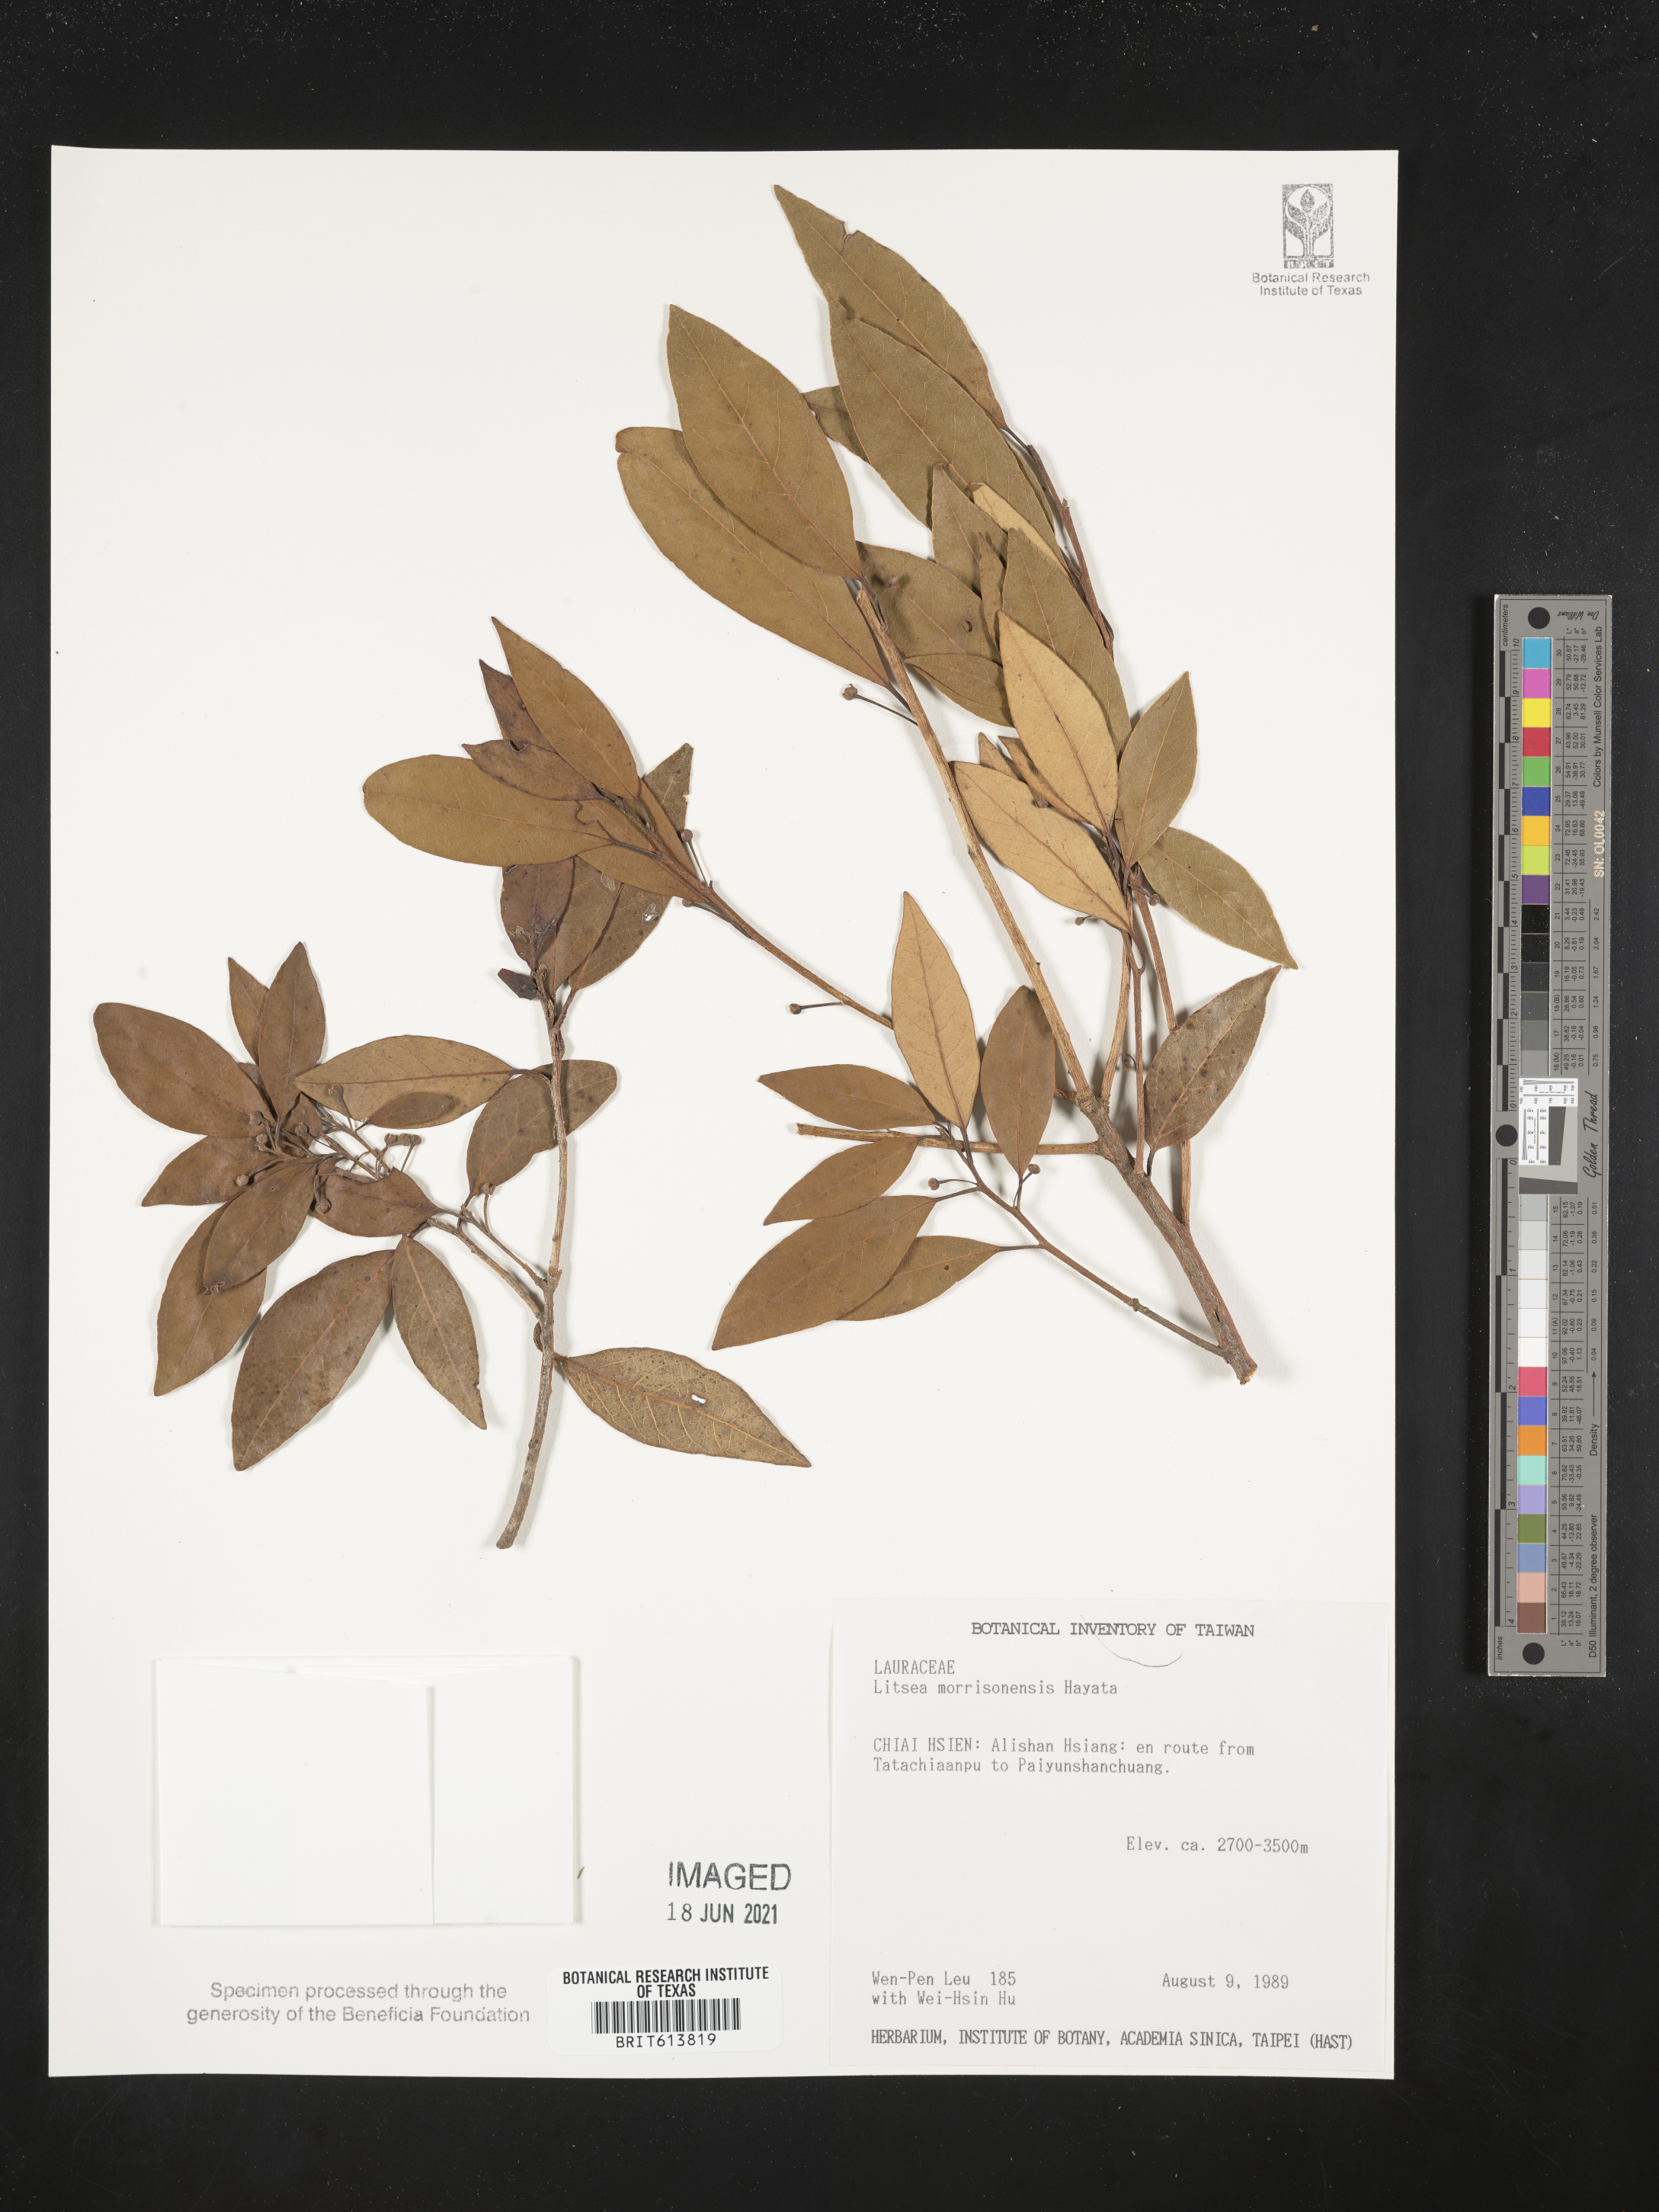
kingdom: Plantae
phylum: Tracheophyta
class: Magnoliopsida
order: Laurales
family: Lauraceae
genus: Litsea
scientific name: Litsea morrisonensis
